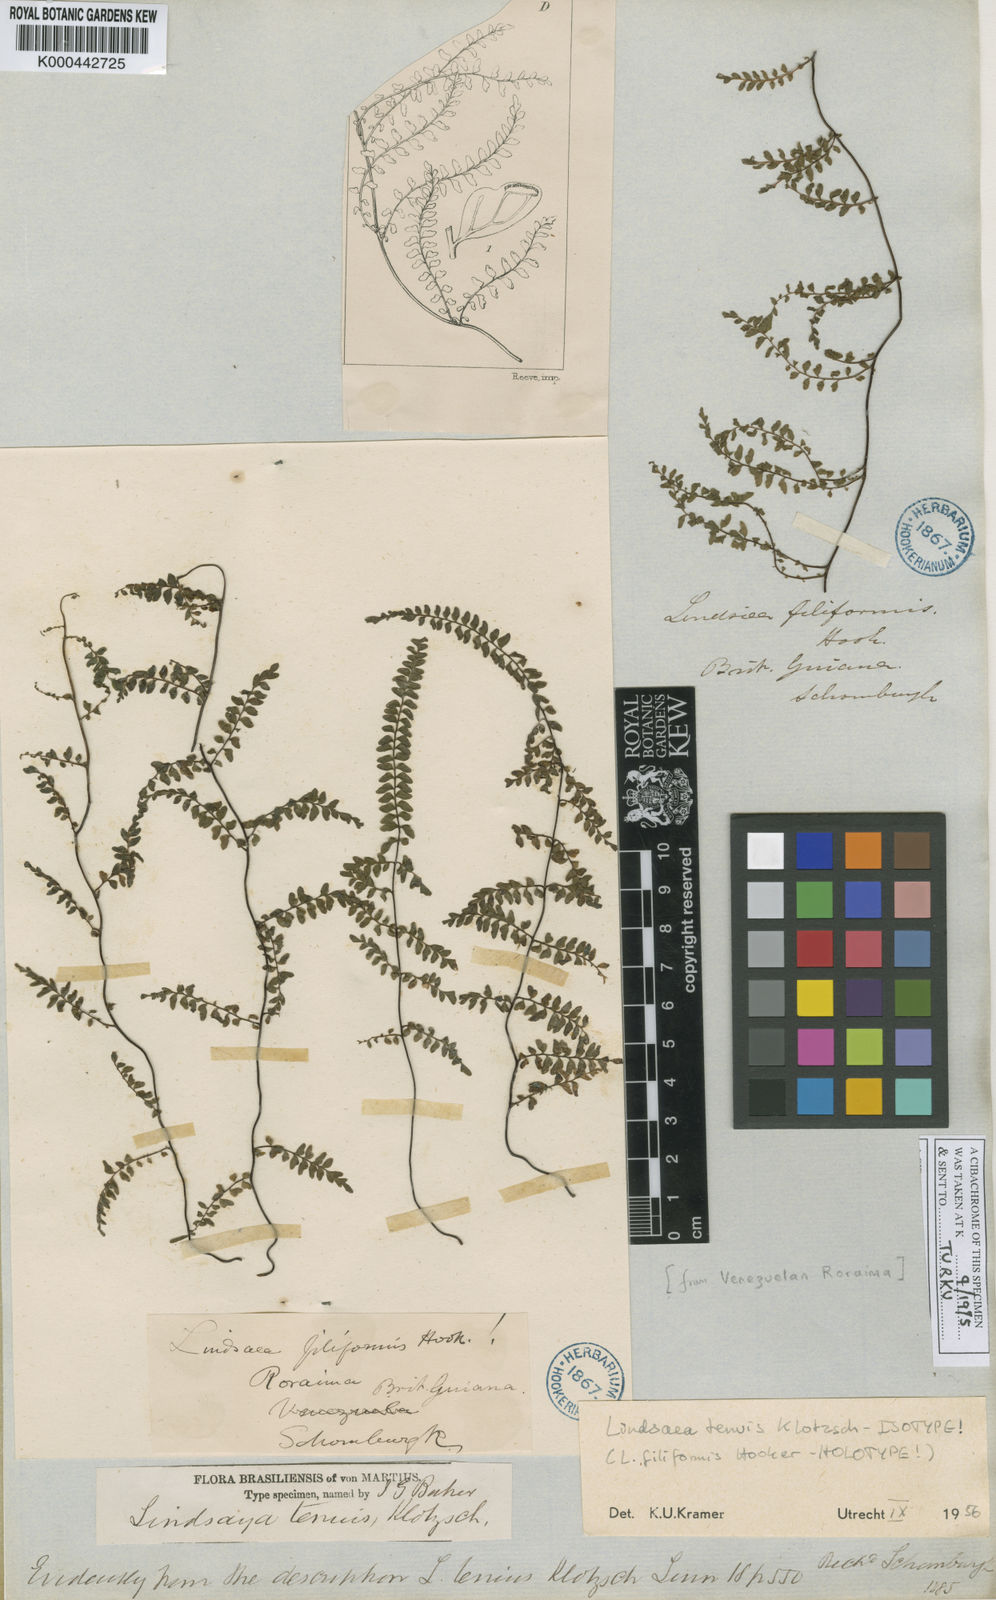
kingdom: Plantae
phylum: Tracheophyta
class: Polypodiopsida
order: Polypodiales
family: Lindsaeaceae
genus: Lindsaea
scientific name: Lindsaea tenuis
